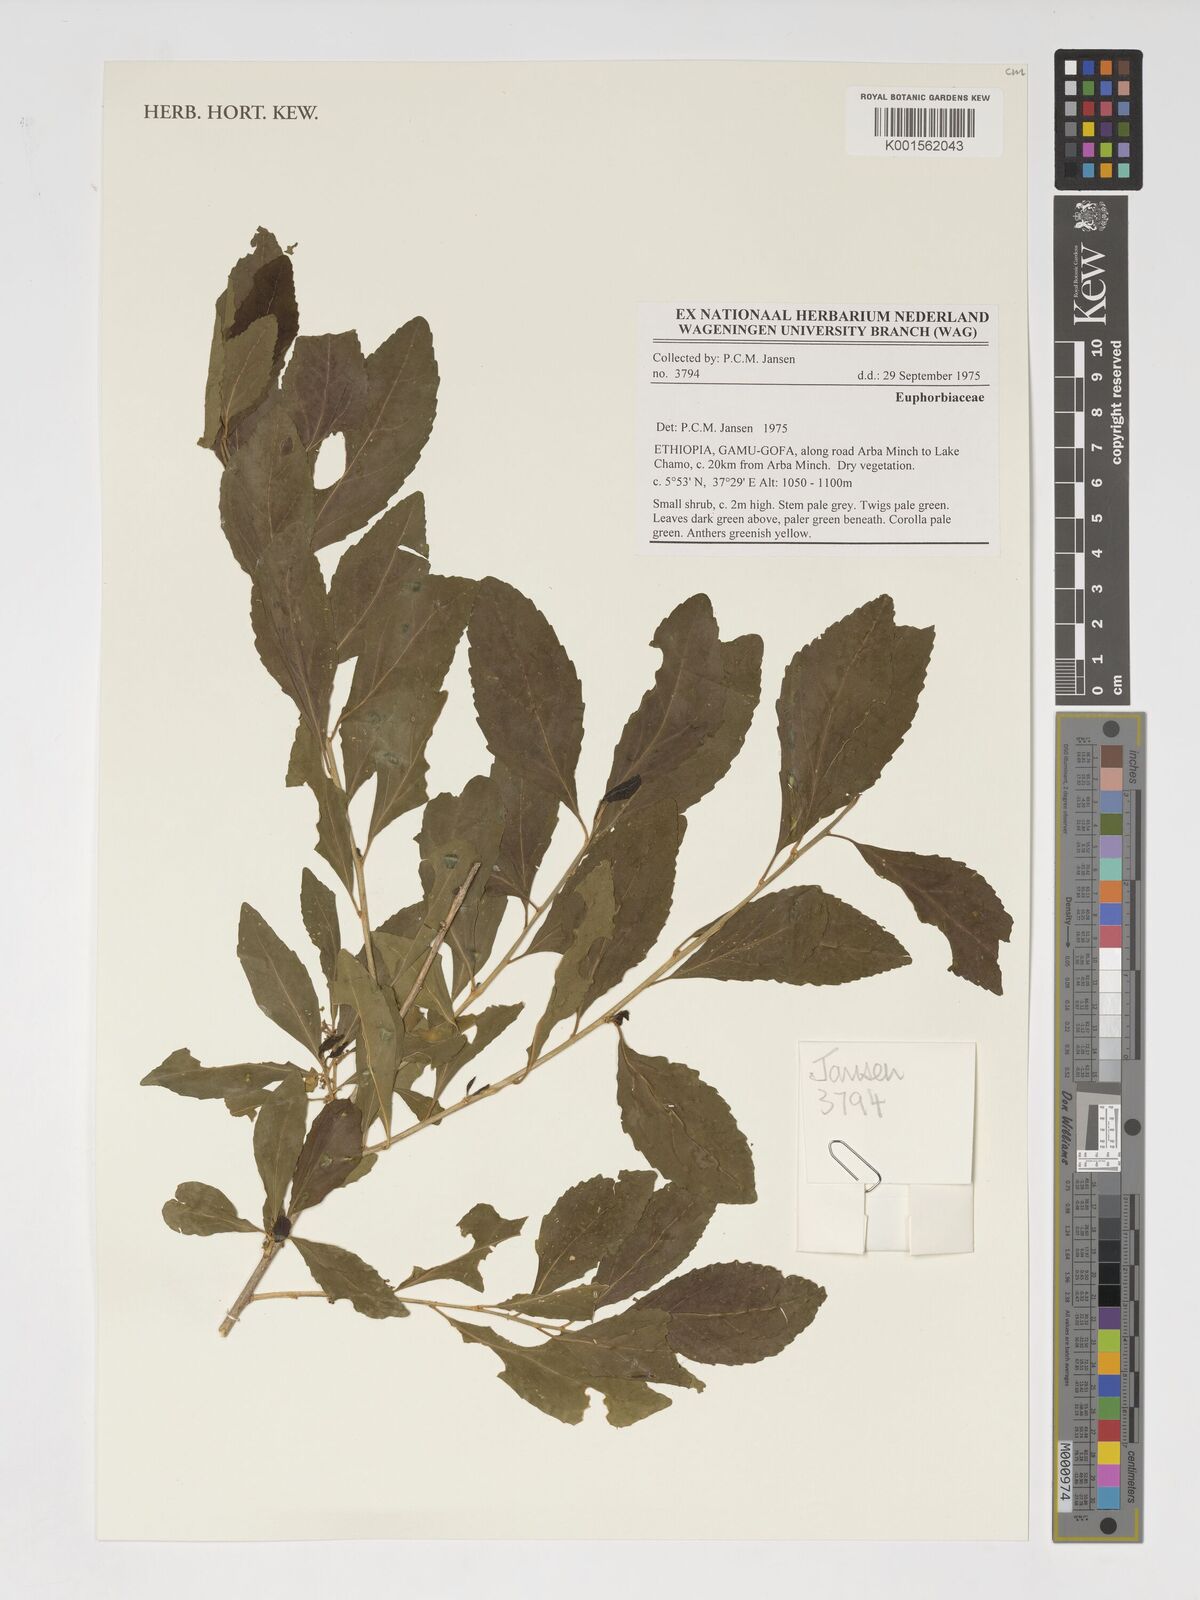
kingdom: Plantae
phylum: Tracheophyta
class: Magnoliopsida
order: Malpighiales
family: Euphorbiaceae
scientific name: Euphorbiaceae
